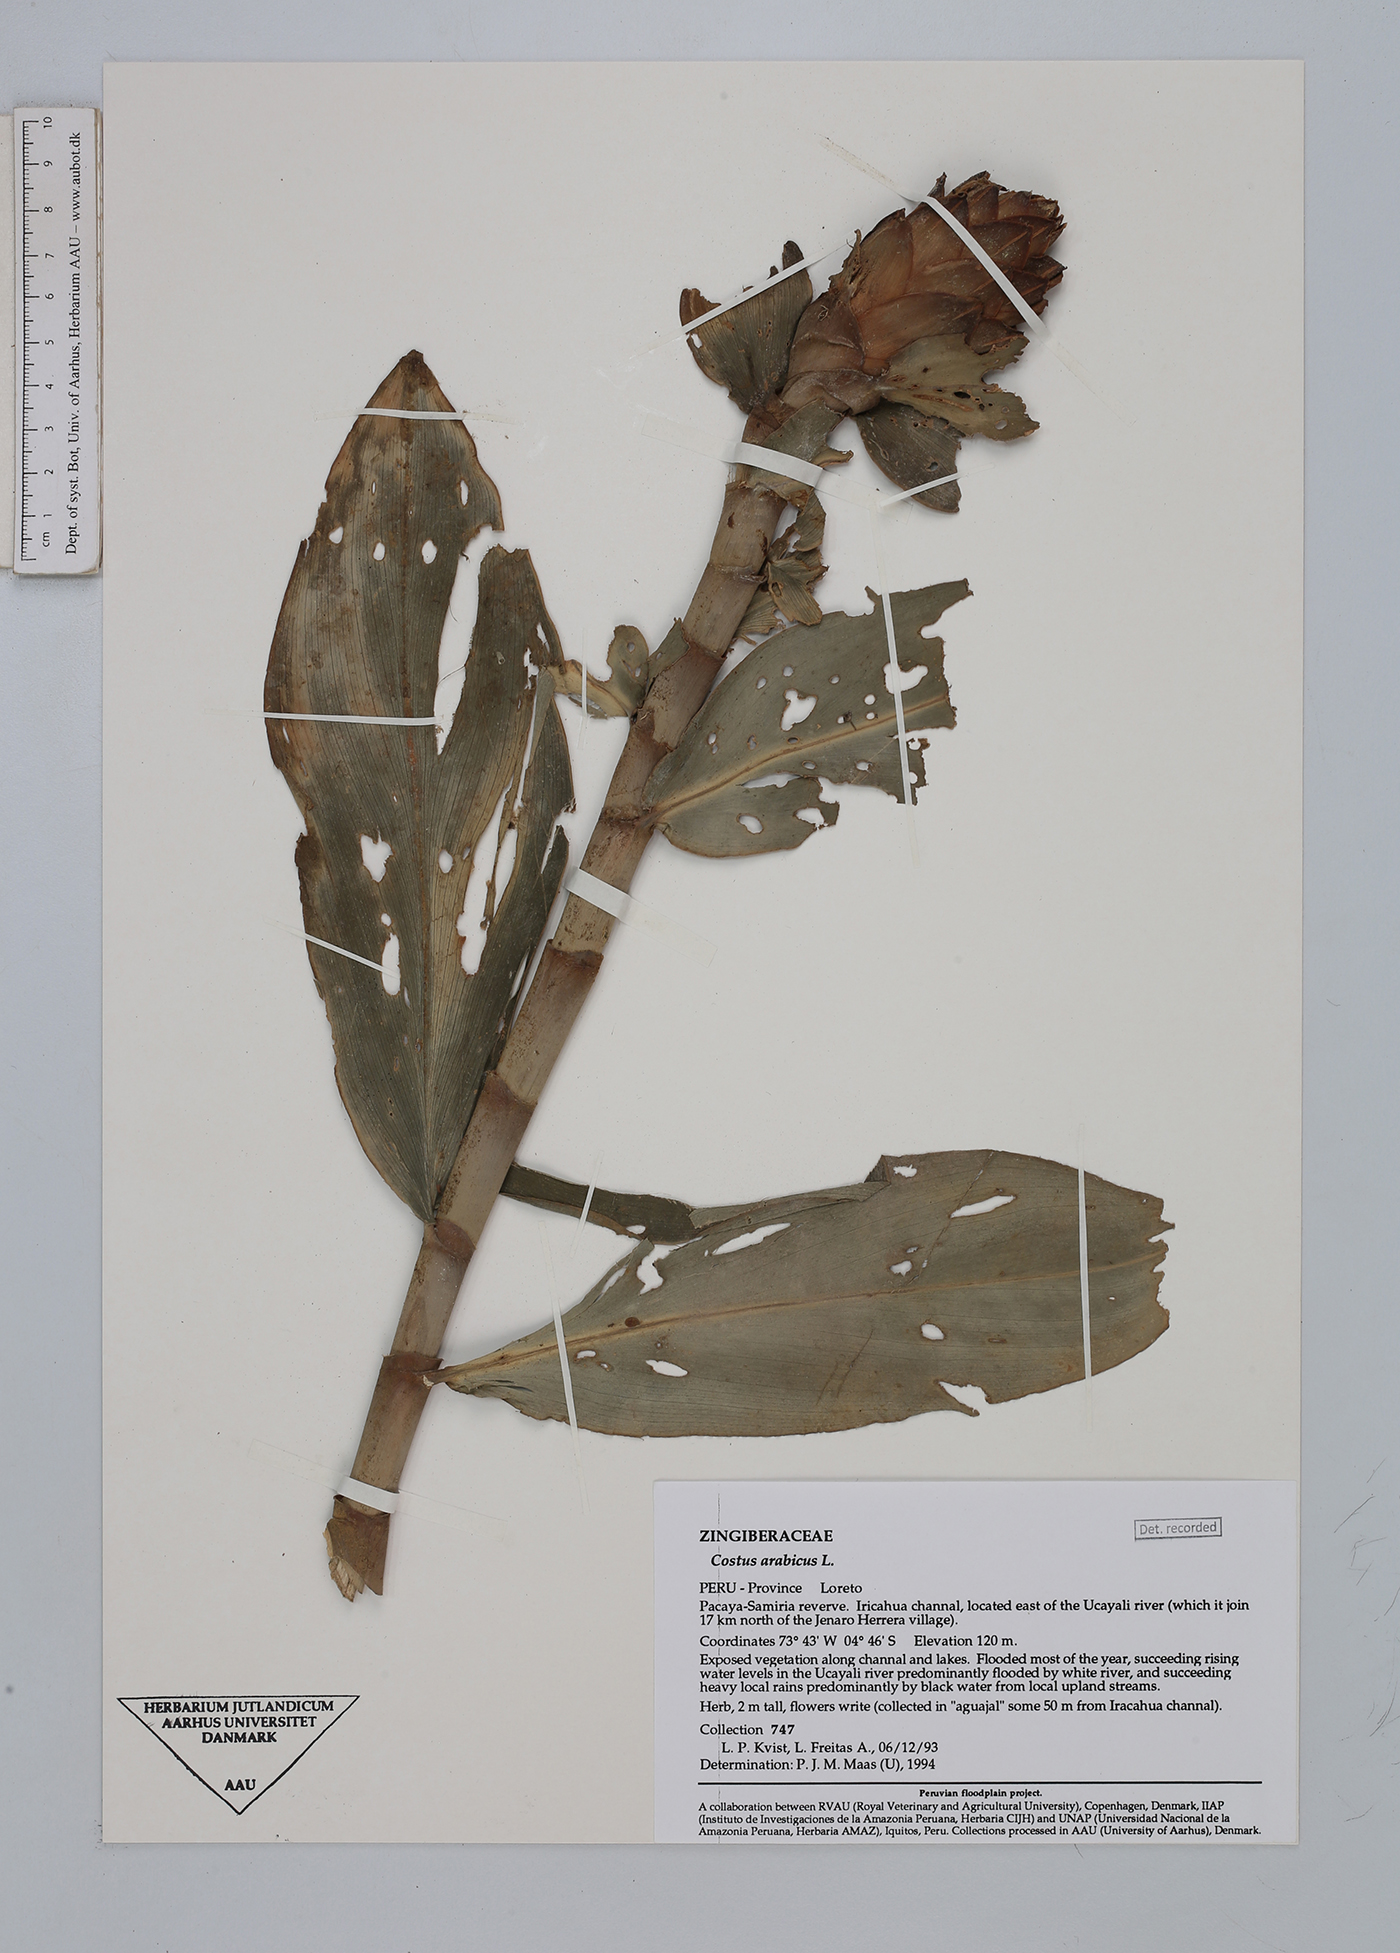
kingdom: Plantae
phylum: Tracheophyta
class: Liliopsida
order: Zingiberales
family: Costaceae
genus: Costus
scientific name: Costus arabicus
